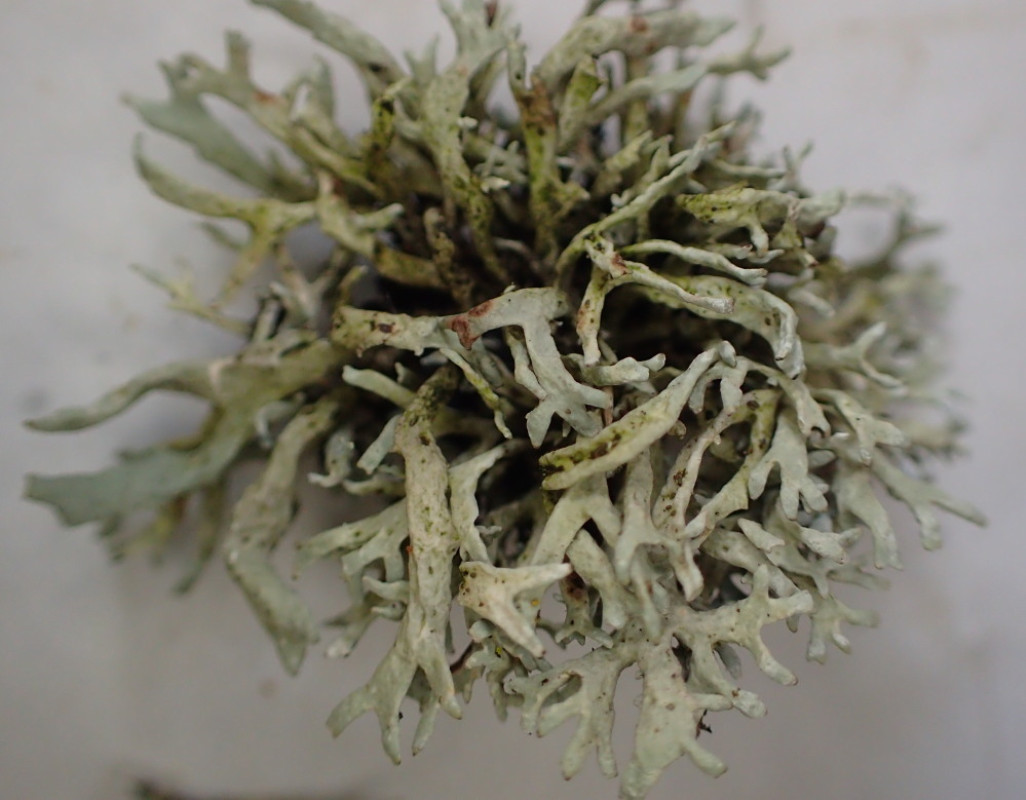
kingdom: Fungi
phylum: Ascomycota
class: Lecanoromycetes
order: Lecanorales
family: Parmeliaceae
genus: Evernia
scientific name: Evernia prunastri
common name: almindelig slåenlav
